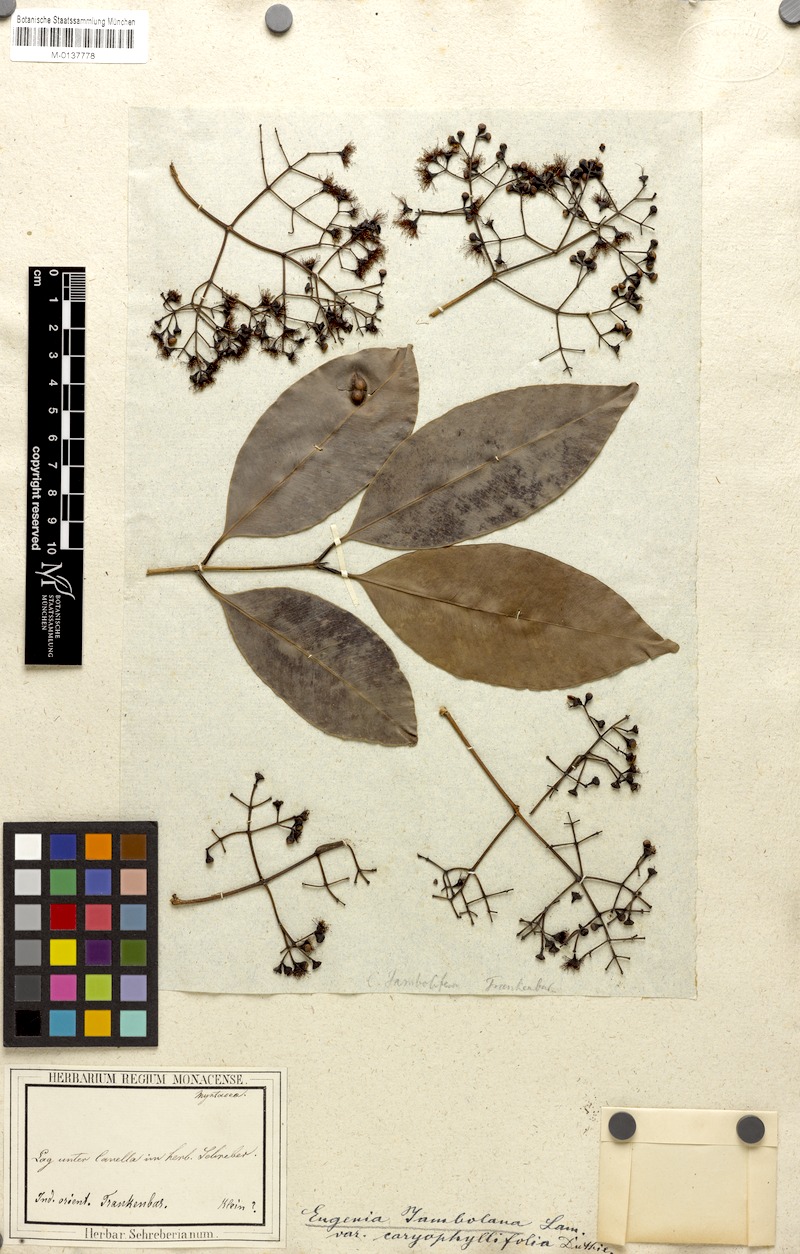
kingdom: Plantae
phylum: Tracheophyta
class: Magnoliopsida
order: Myrtales
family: Myrtaceae
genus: Syzygium
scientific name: Syzygium cumini
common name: Java plum
